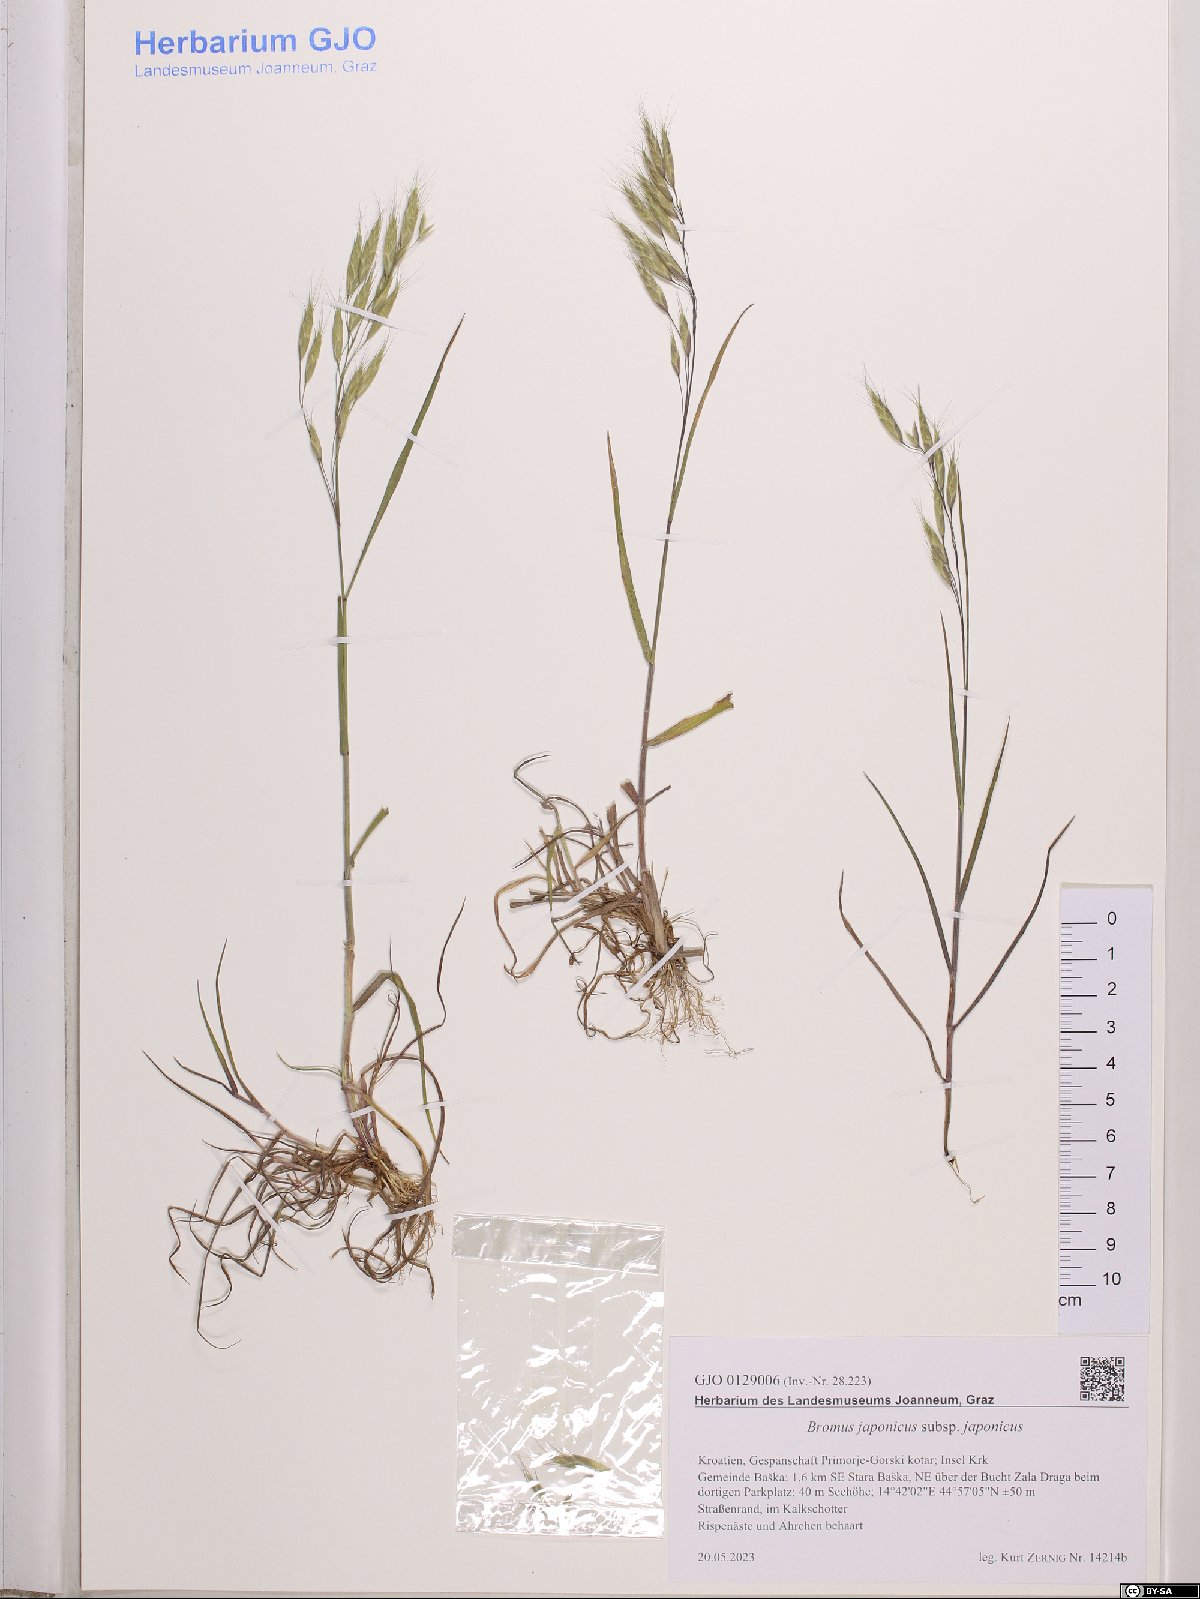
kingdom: Plantae
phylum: Tracheophyta
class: Liliopsida
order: Poales
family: Poaceae
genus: Bromus
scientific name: Bromus japonicus
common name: Japanese brome
